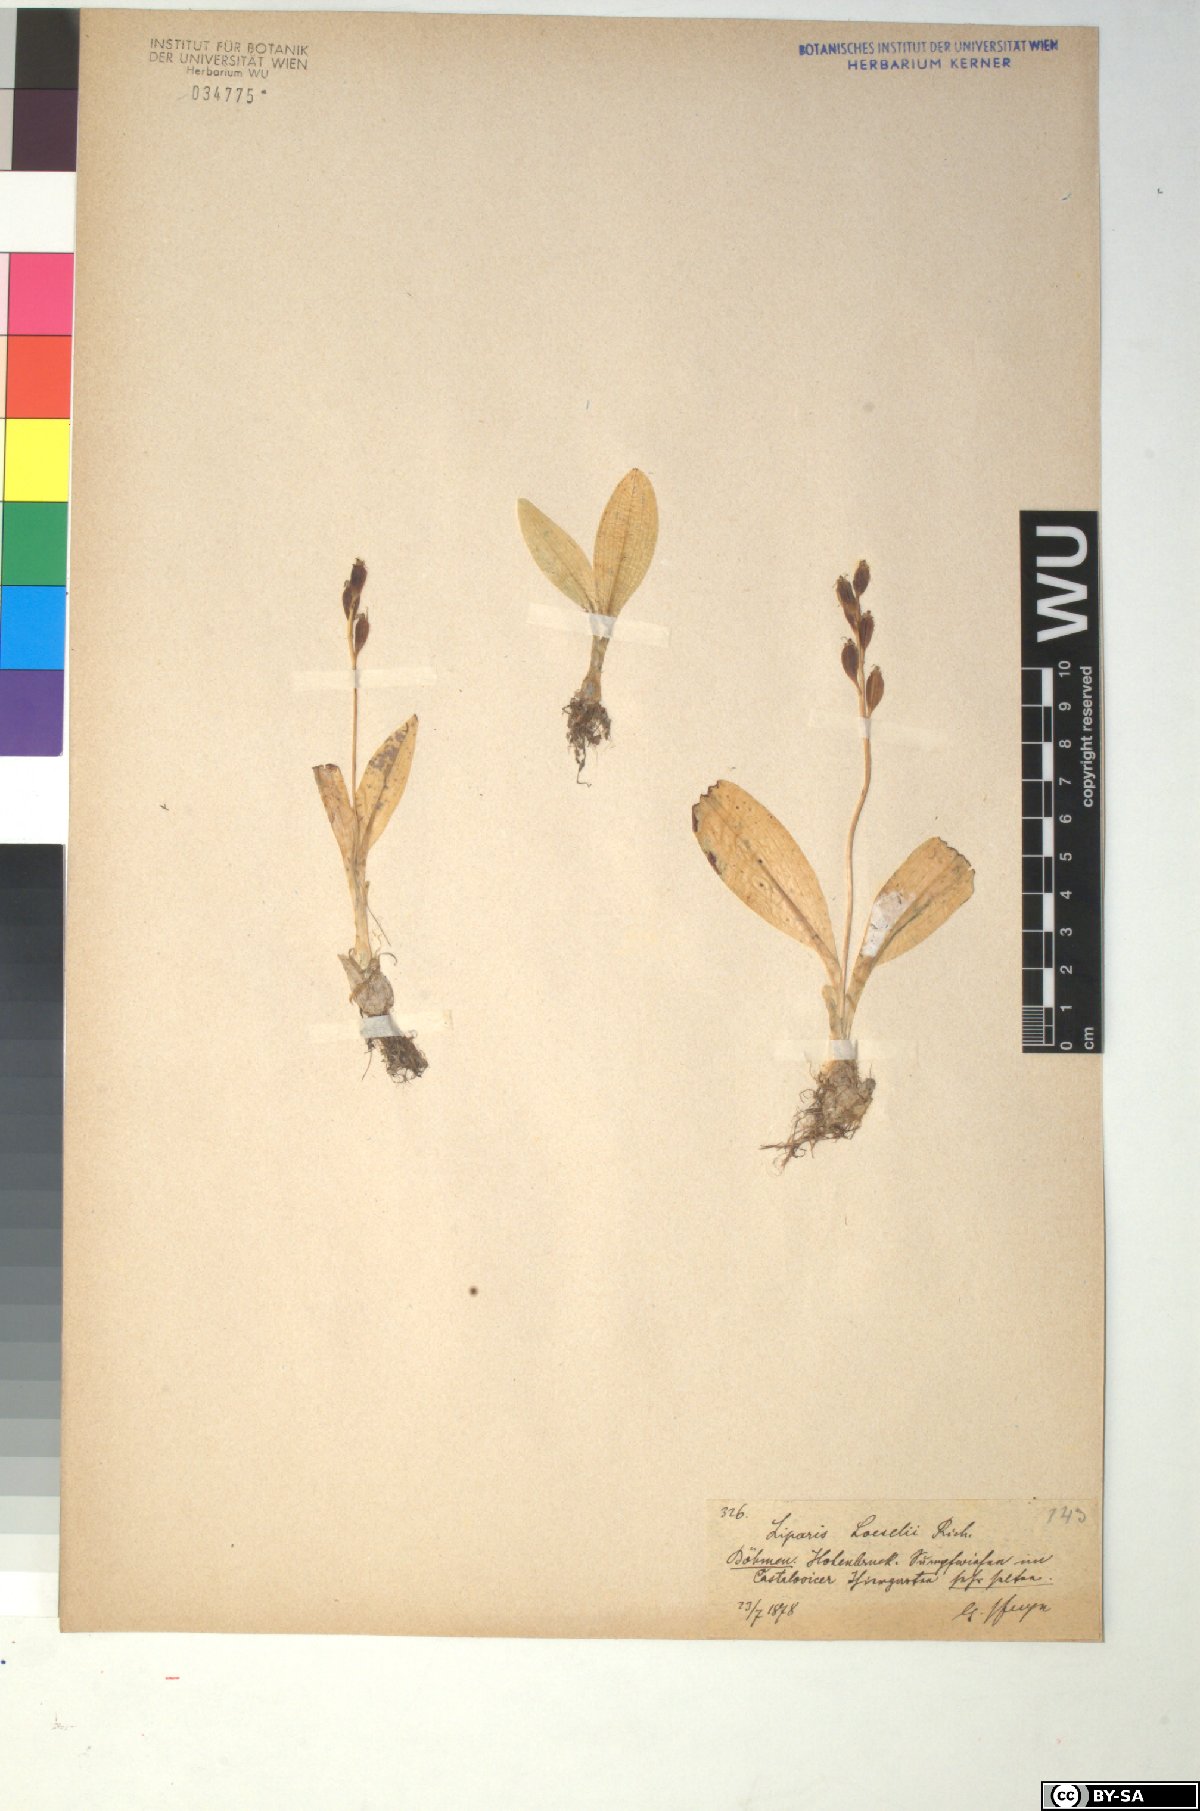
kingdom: Animalia
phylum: Arthropoda
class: Insecta
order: Coleoptera
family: Curculionidae
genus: Liparis
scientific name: Liparis loeselii
